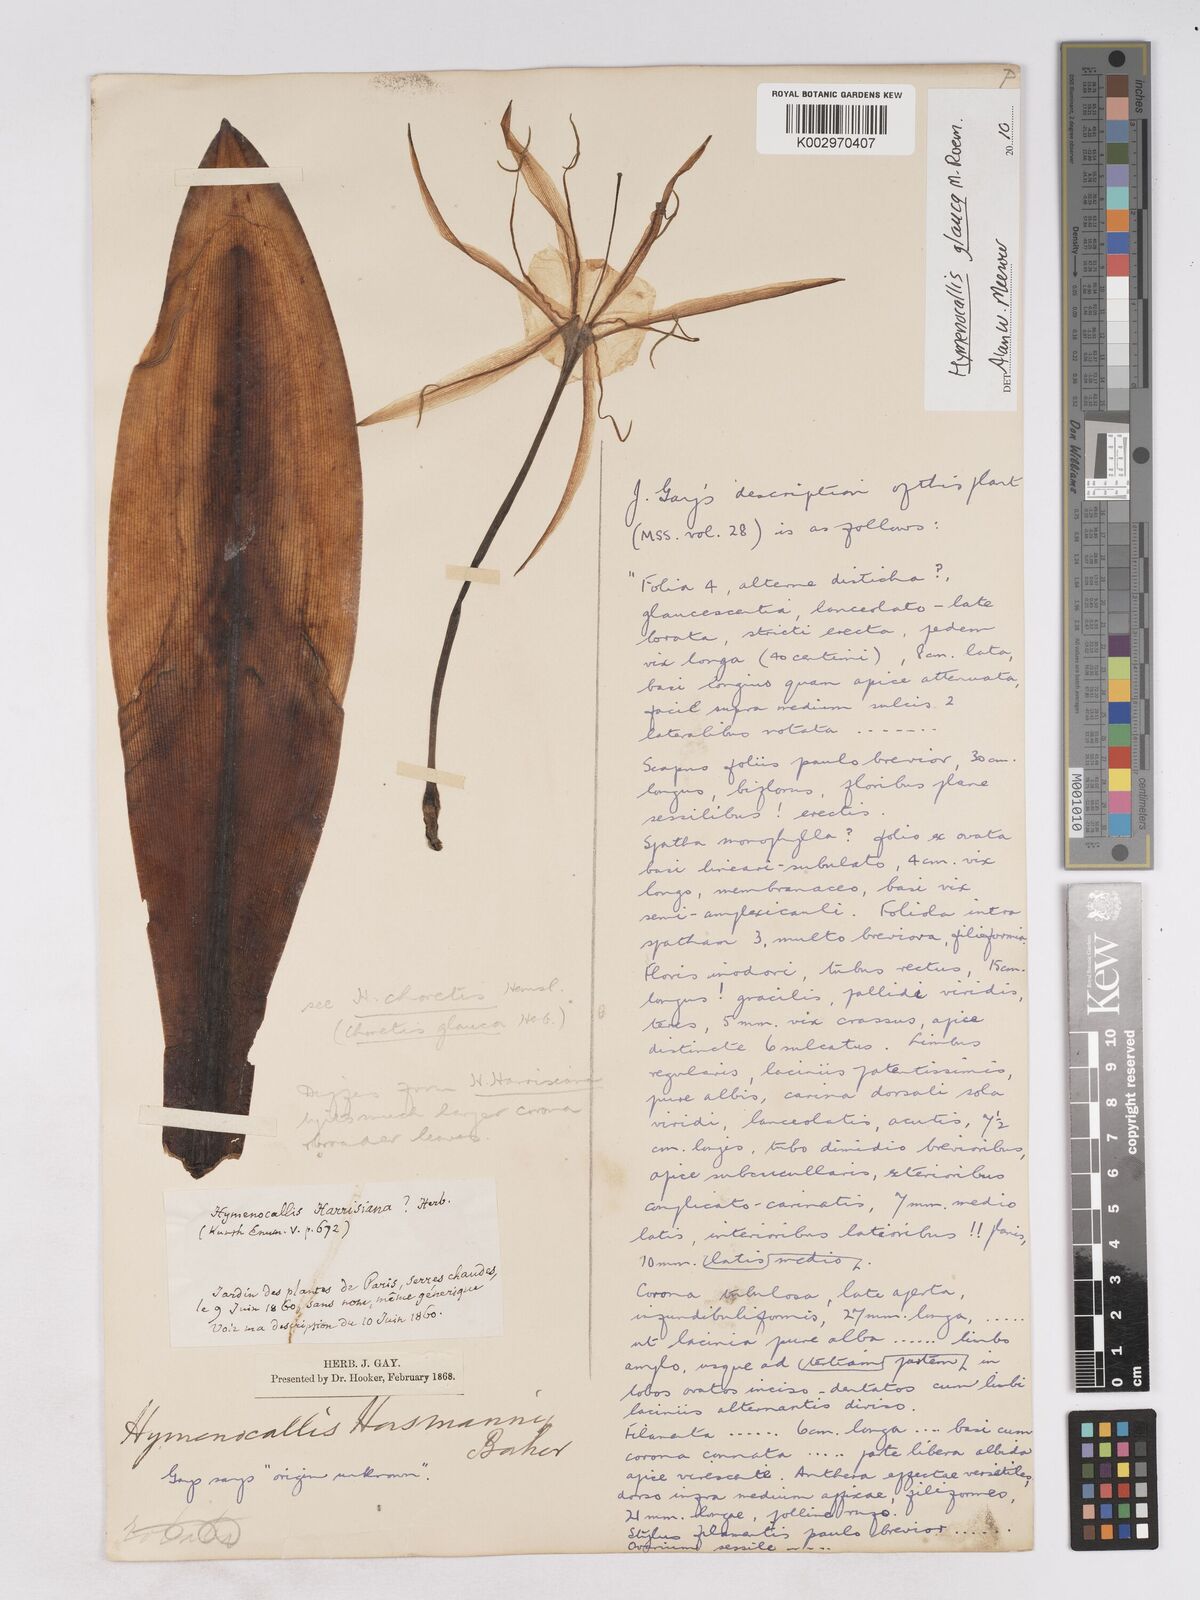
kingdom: Plantae
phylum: Tracheophyta
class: Liliopsida
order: Asparagales
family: Amaryllidaceae
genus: Hymenocallis
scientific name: Hymenocallis choretis
